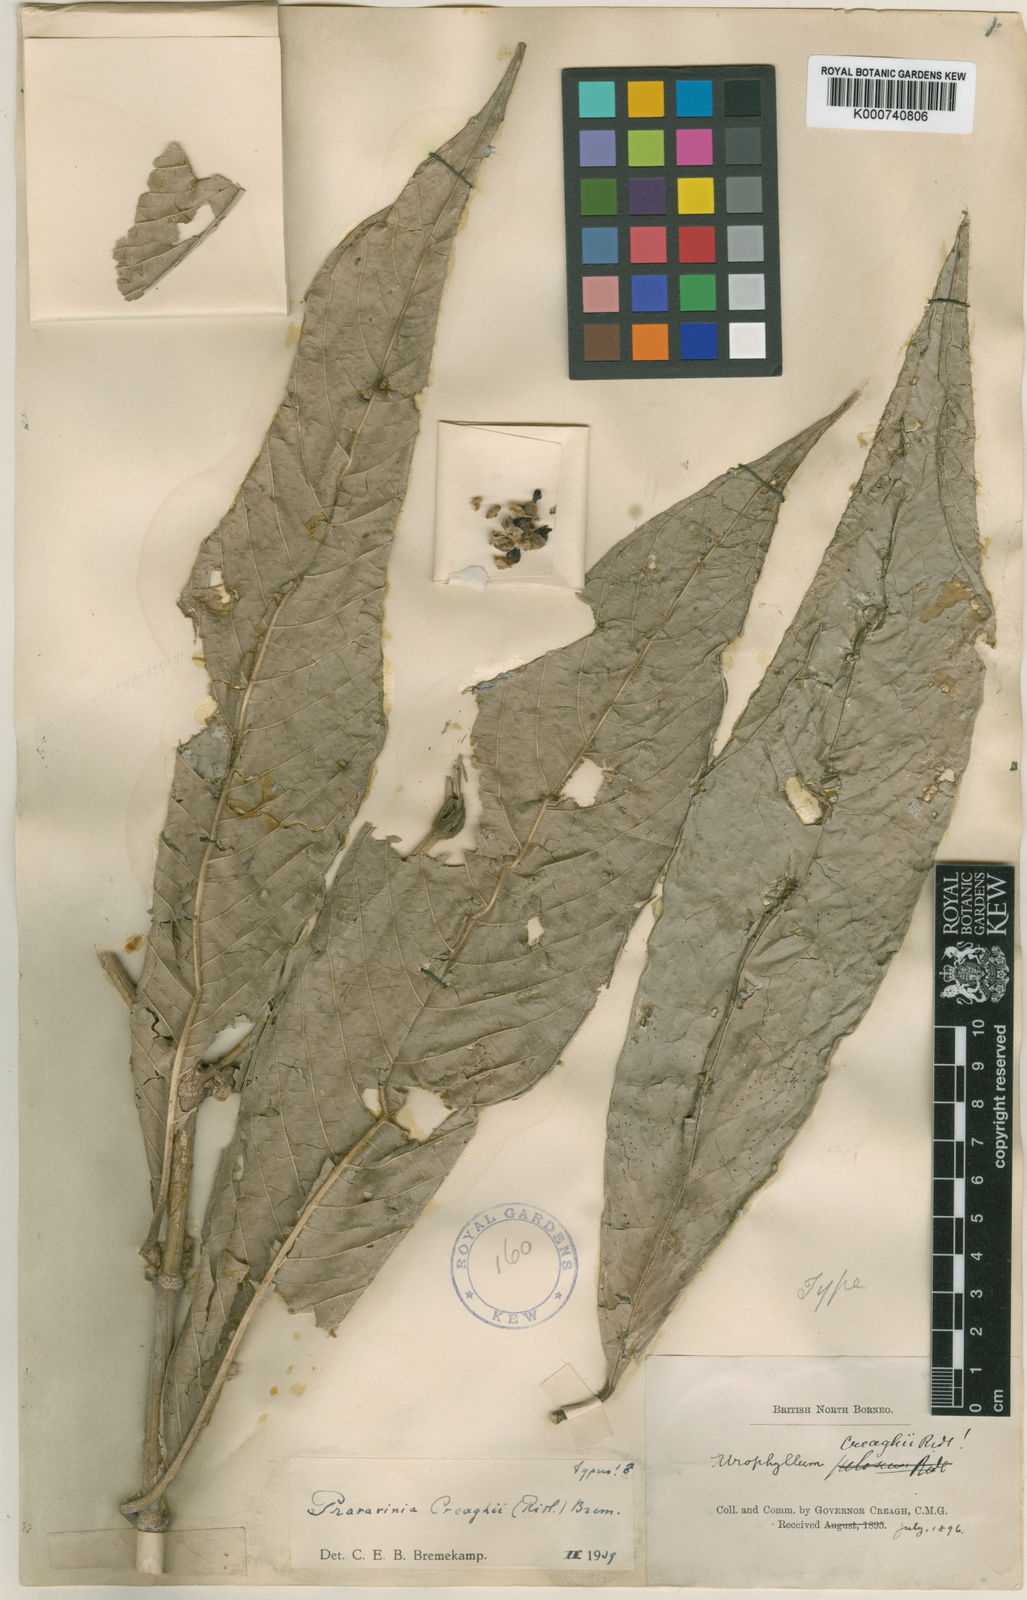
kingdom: Plantae
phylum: Tracheophyta
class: Magnoliopsida
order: Gentianales
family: Rubiaceae
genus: Praravinia
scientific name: Praravinia creaghii
